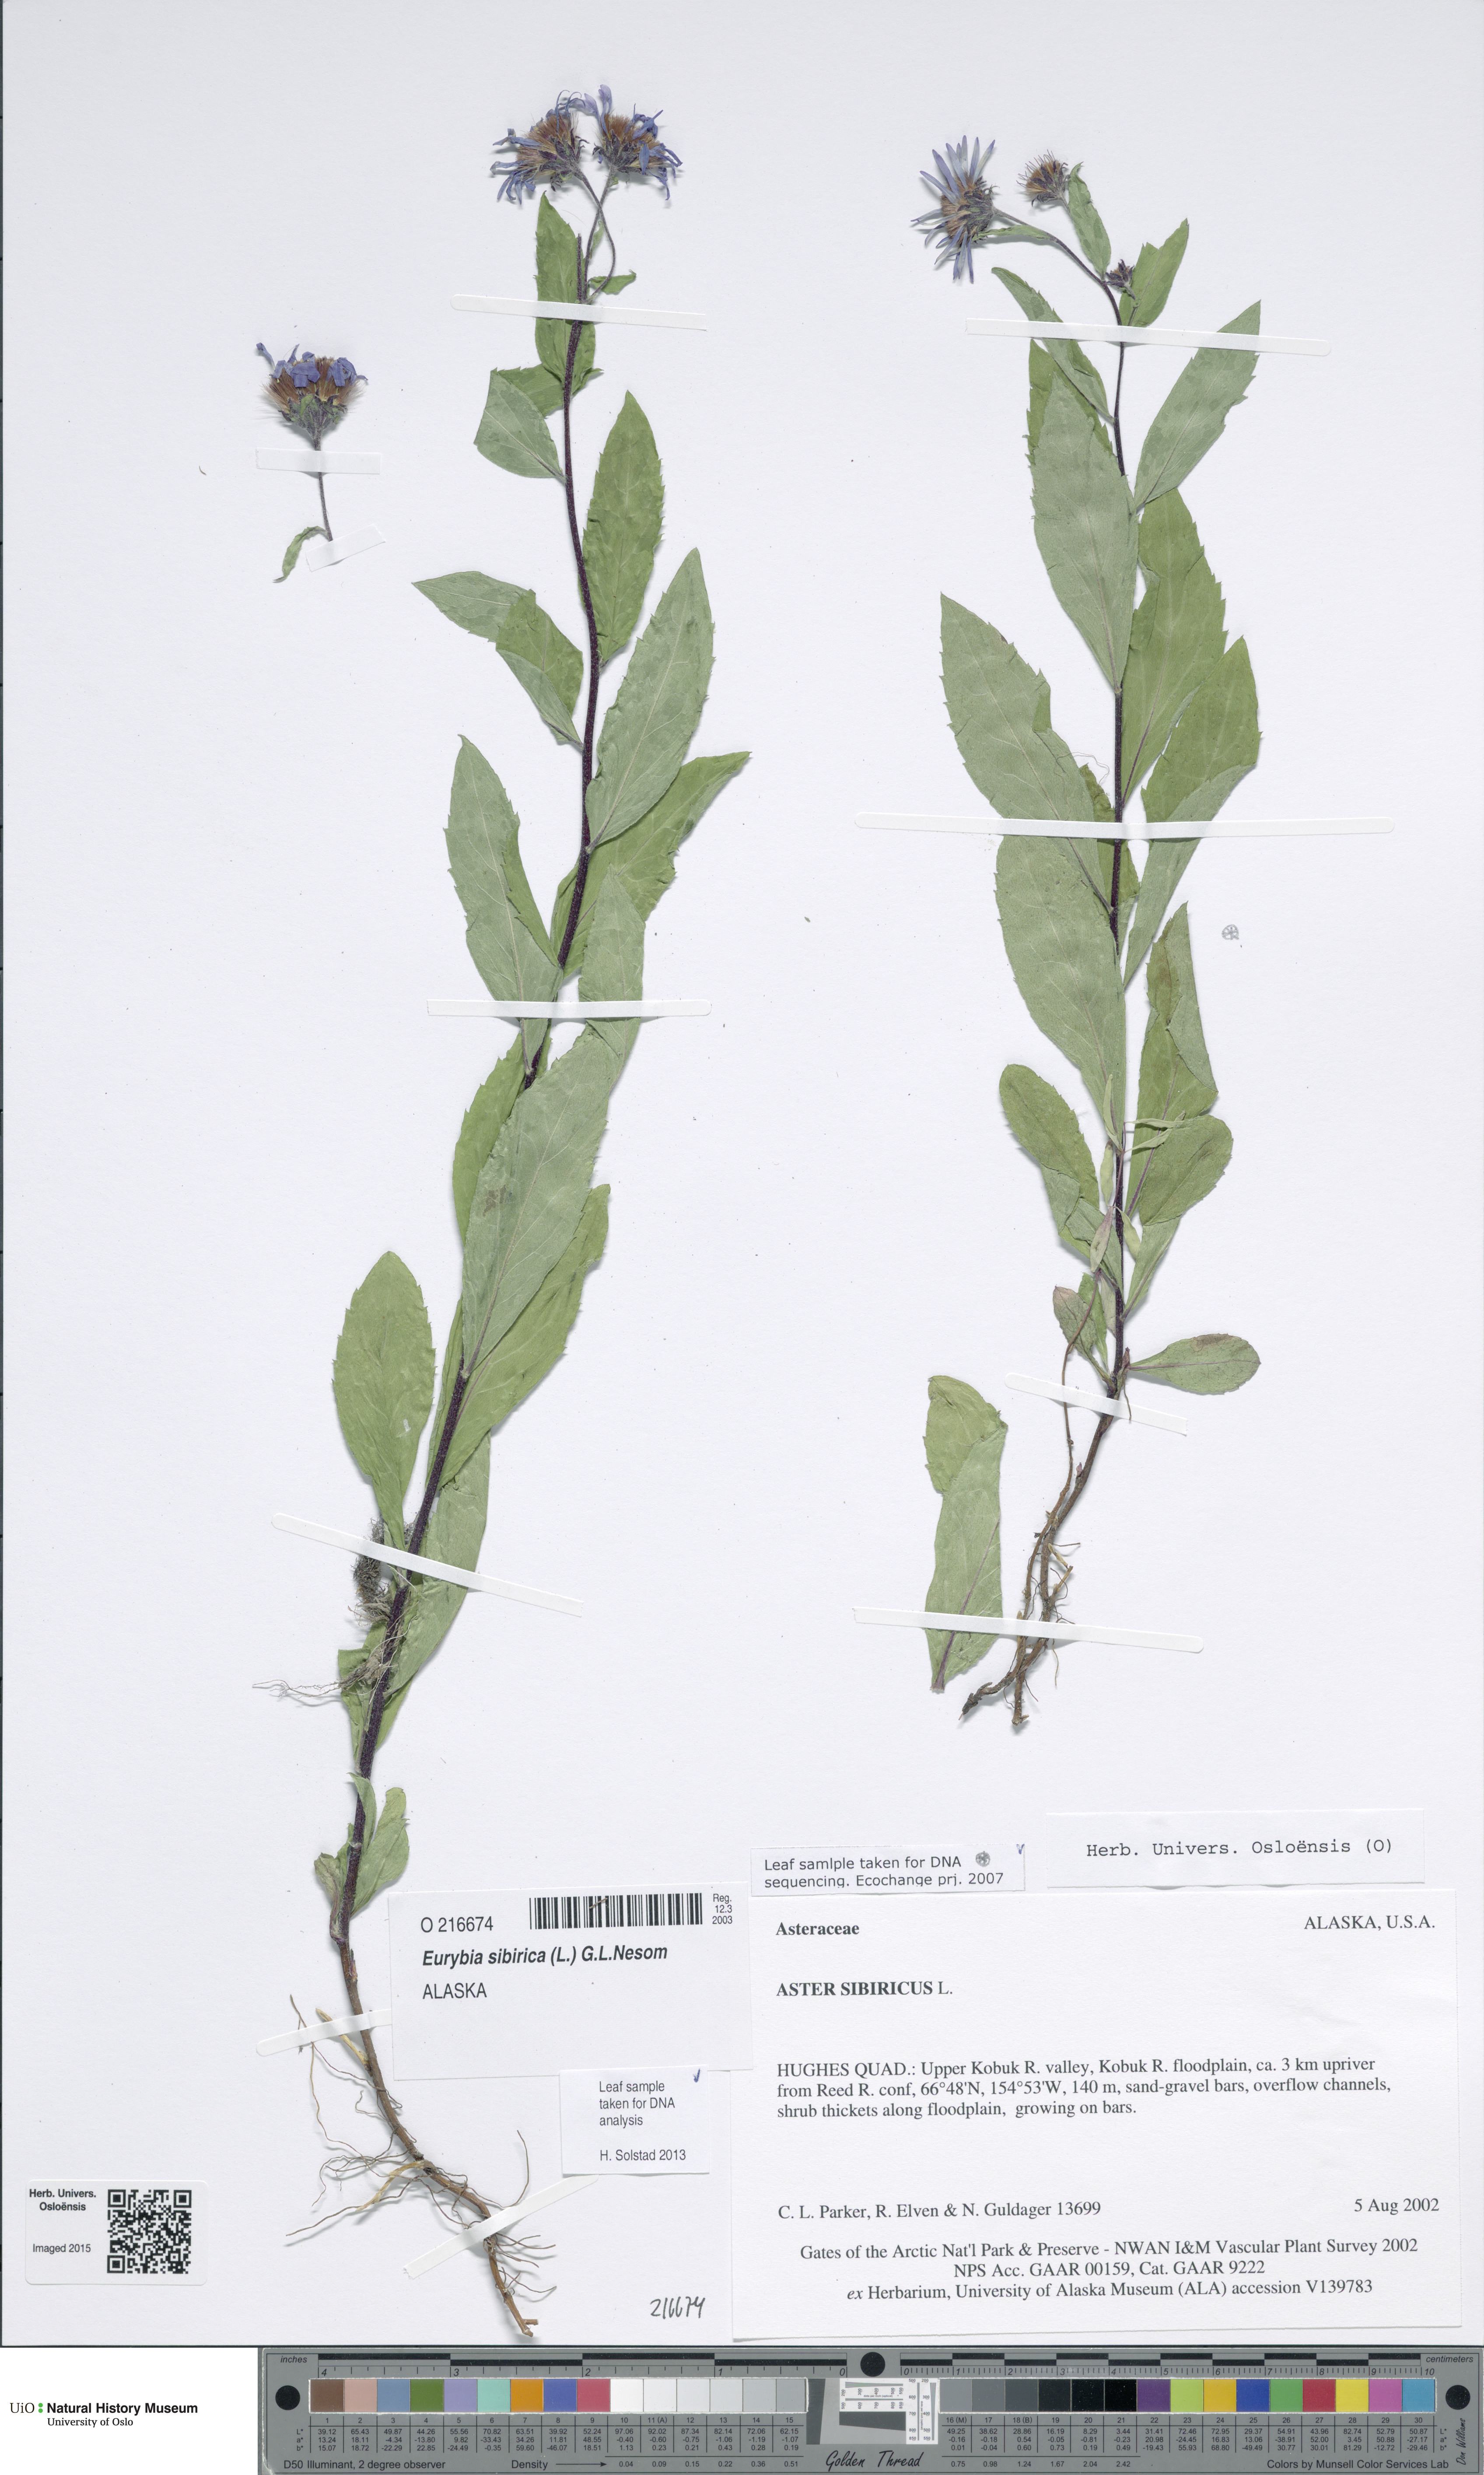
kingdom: Plantae
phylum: Tracheophyta
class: Magnoliopsida
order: Asterales
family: Asteraceae
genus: Eurybia
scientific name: Eurybia sibirica
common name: Arctic aster
